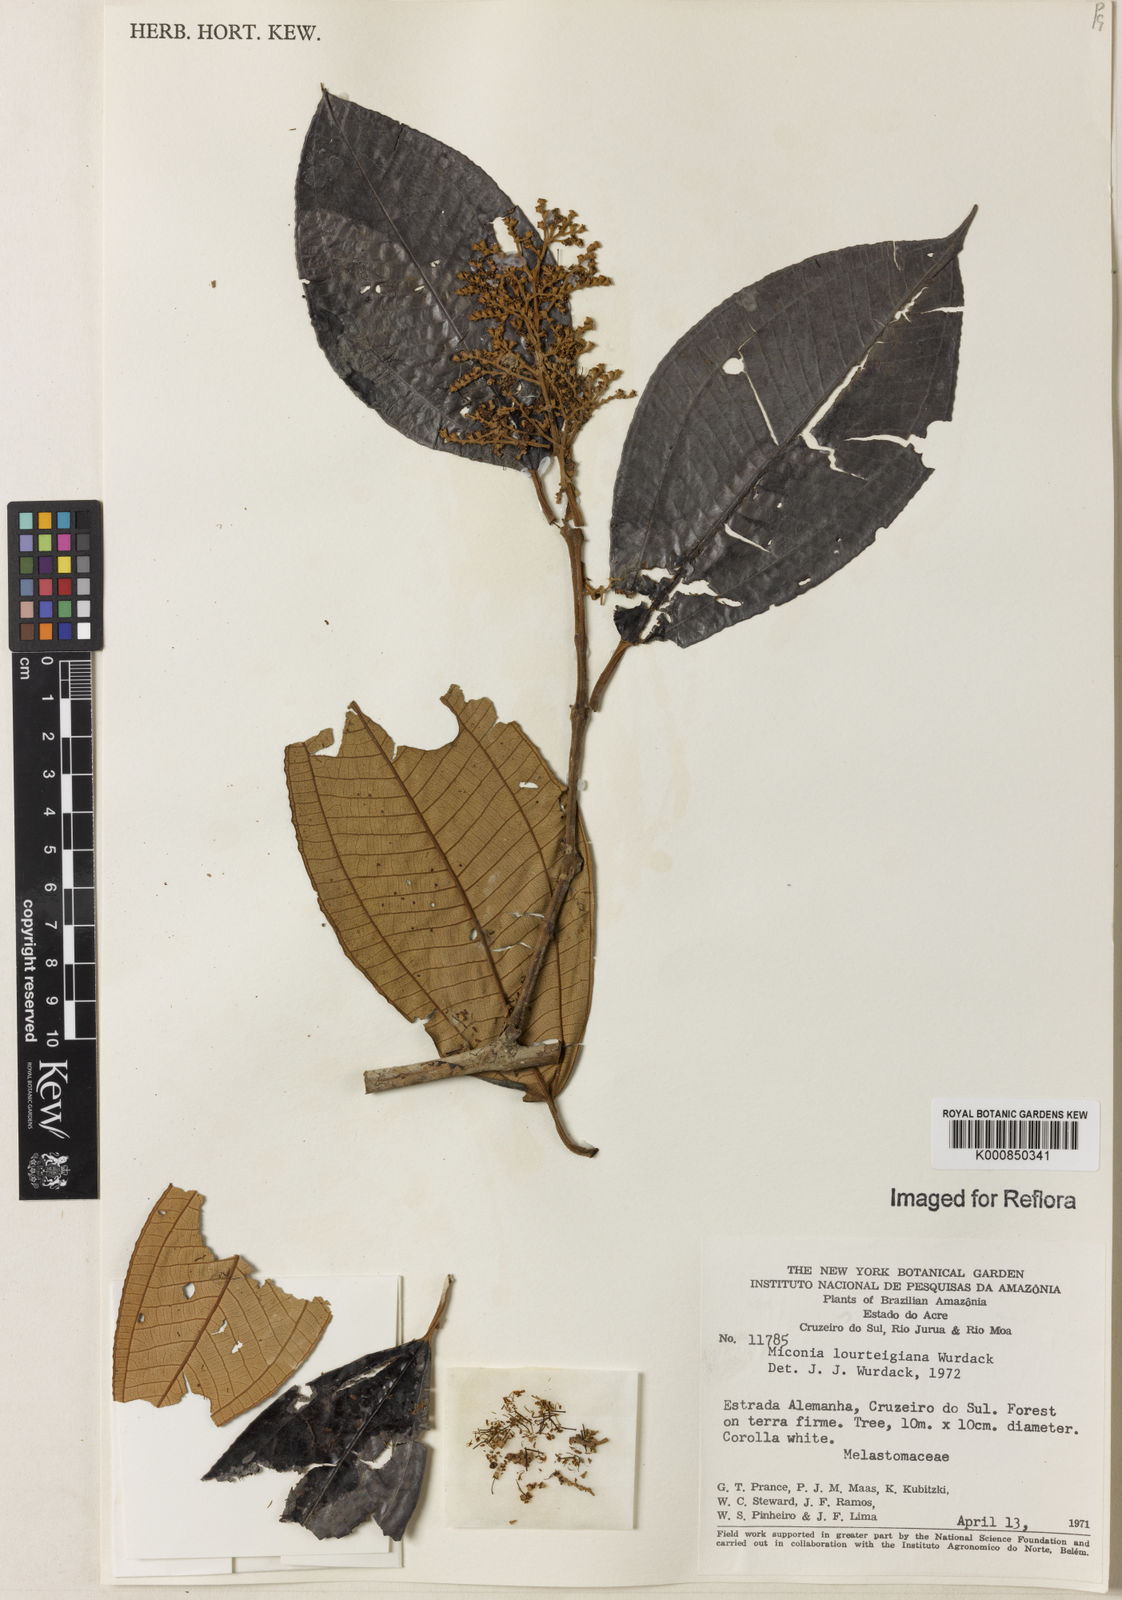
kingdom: Plantae
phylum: Tracheophyta
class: Magnoliopsida
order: Myrtales
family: Melastomataceae
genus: Miconia
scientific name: Miconia lourteigiana
